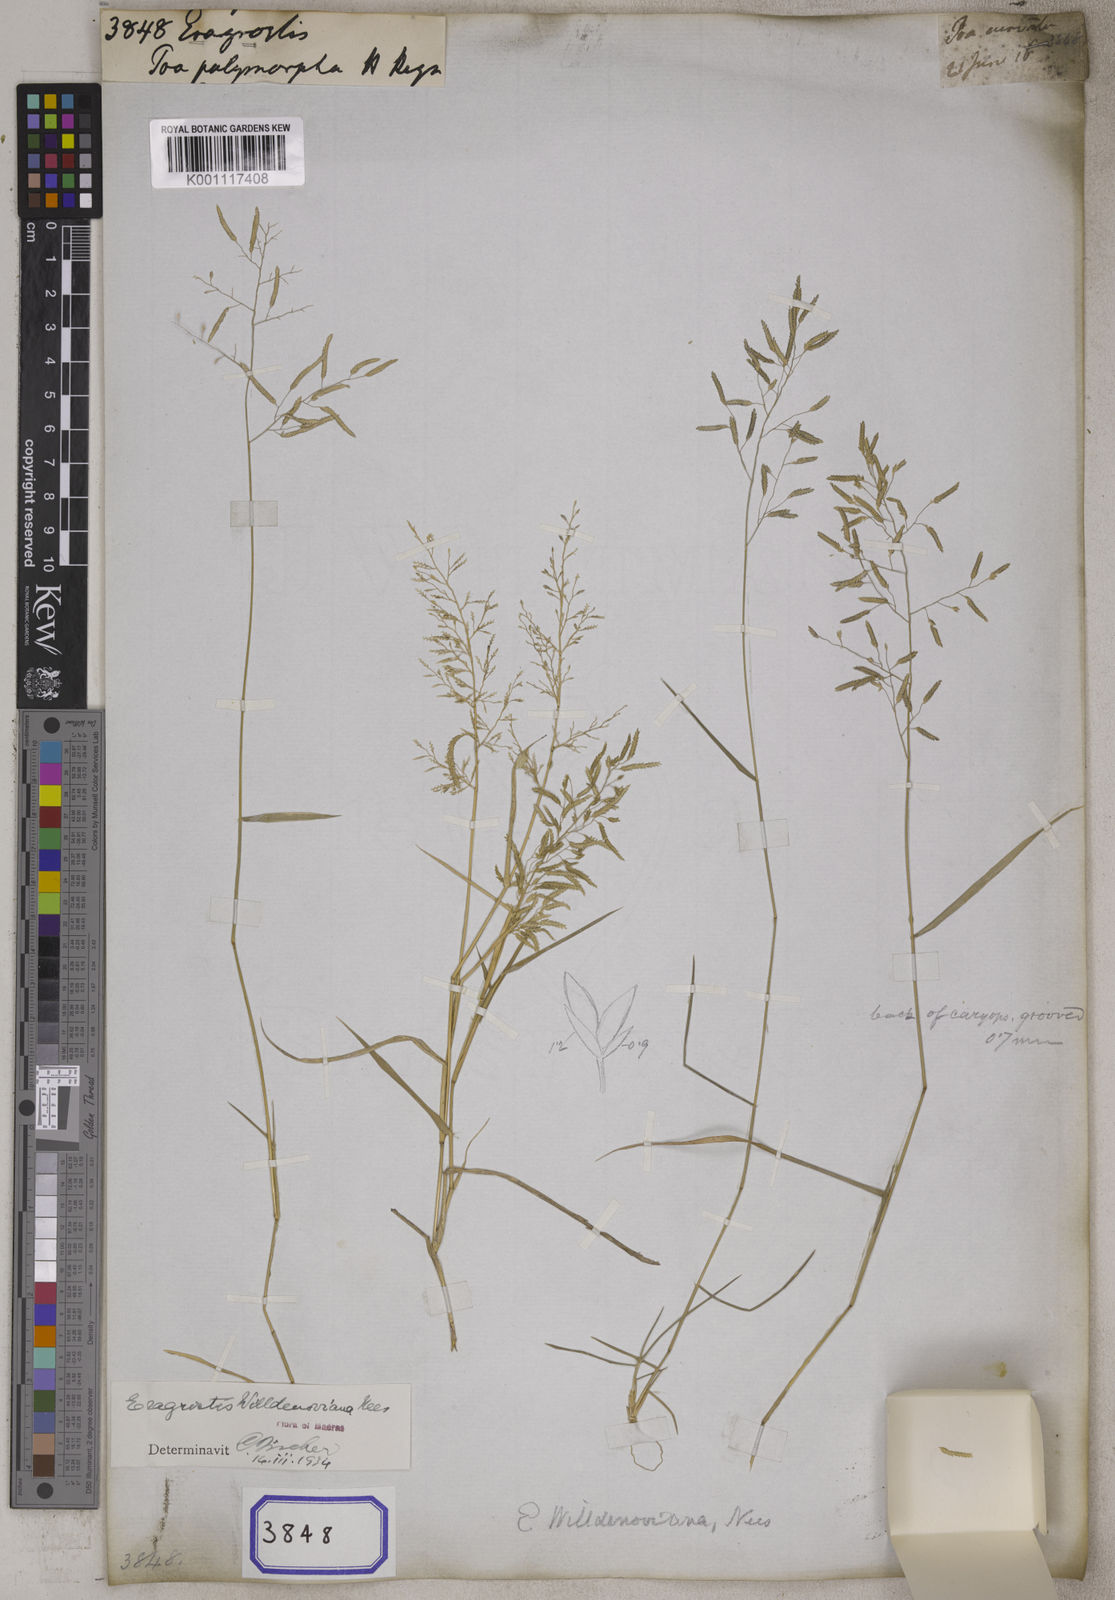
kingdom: Plantae
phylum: Tracheophyta
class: Liliopsida
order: Poales
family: Poaceae
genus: Eragrostis
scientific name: Eragrostis
